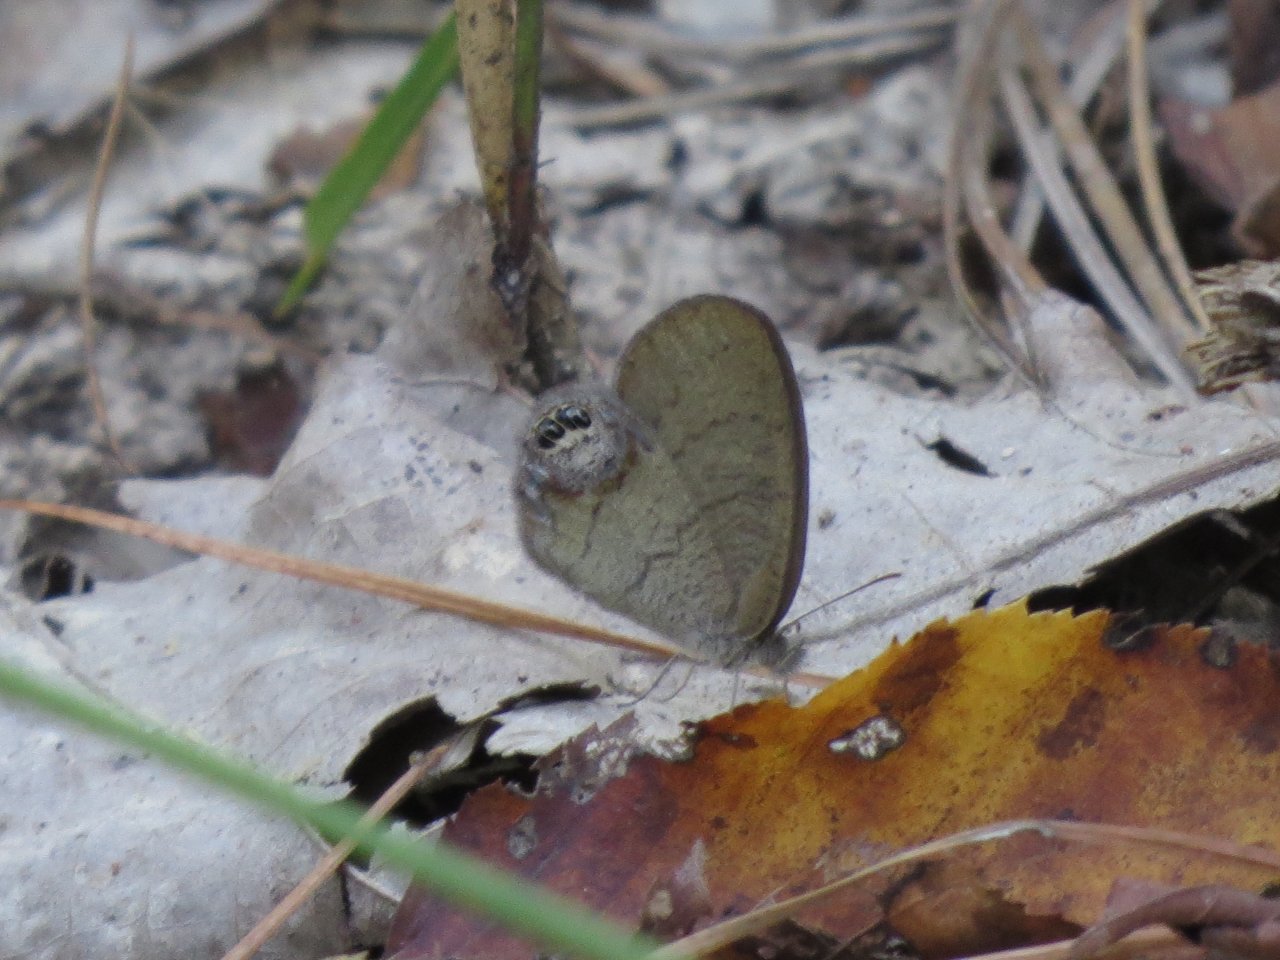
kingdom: Animalia
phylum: Arthropoda
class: Insecta
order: Lepidoptera
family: Nymphalidae
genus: Euptychia
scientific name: Euptychia cornelius
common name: Gemmed Satyr
